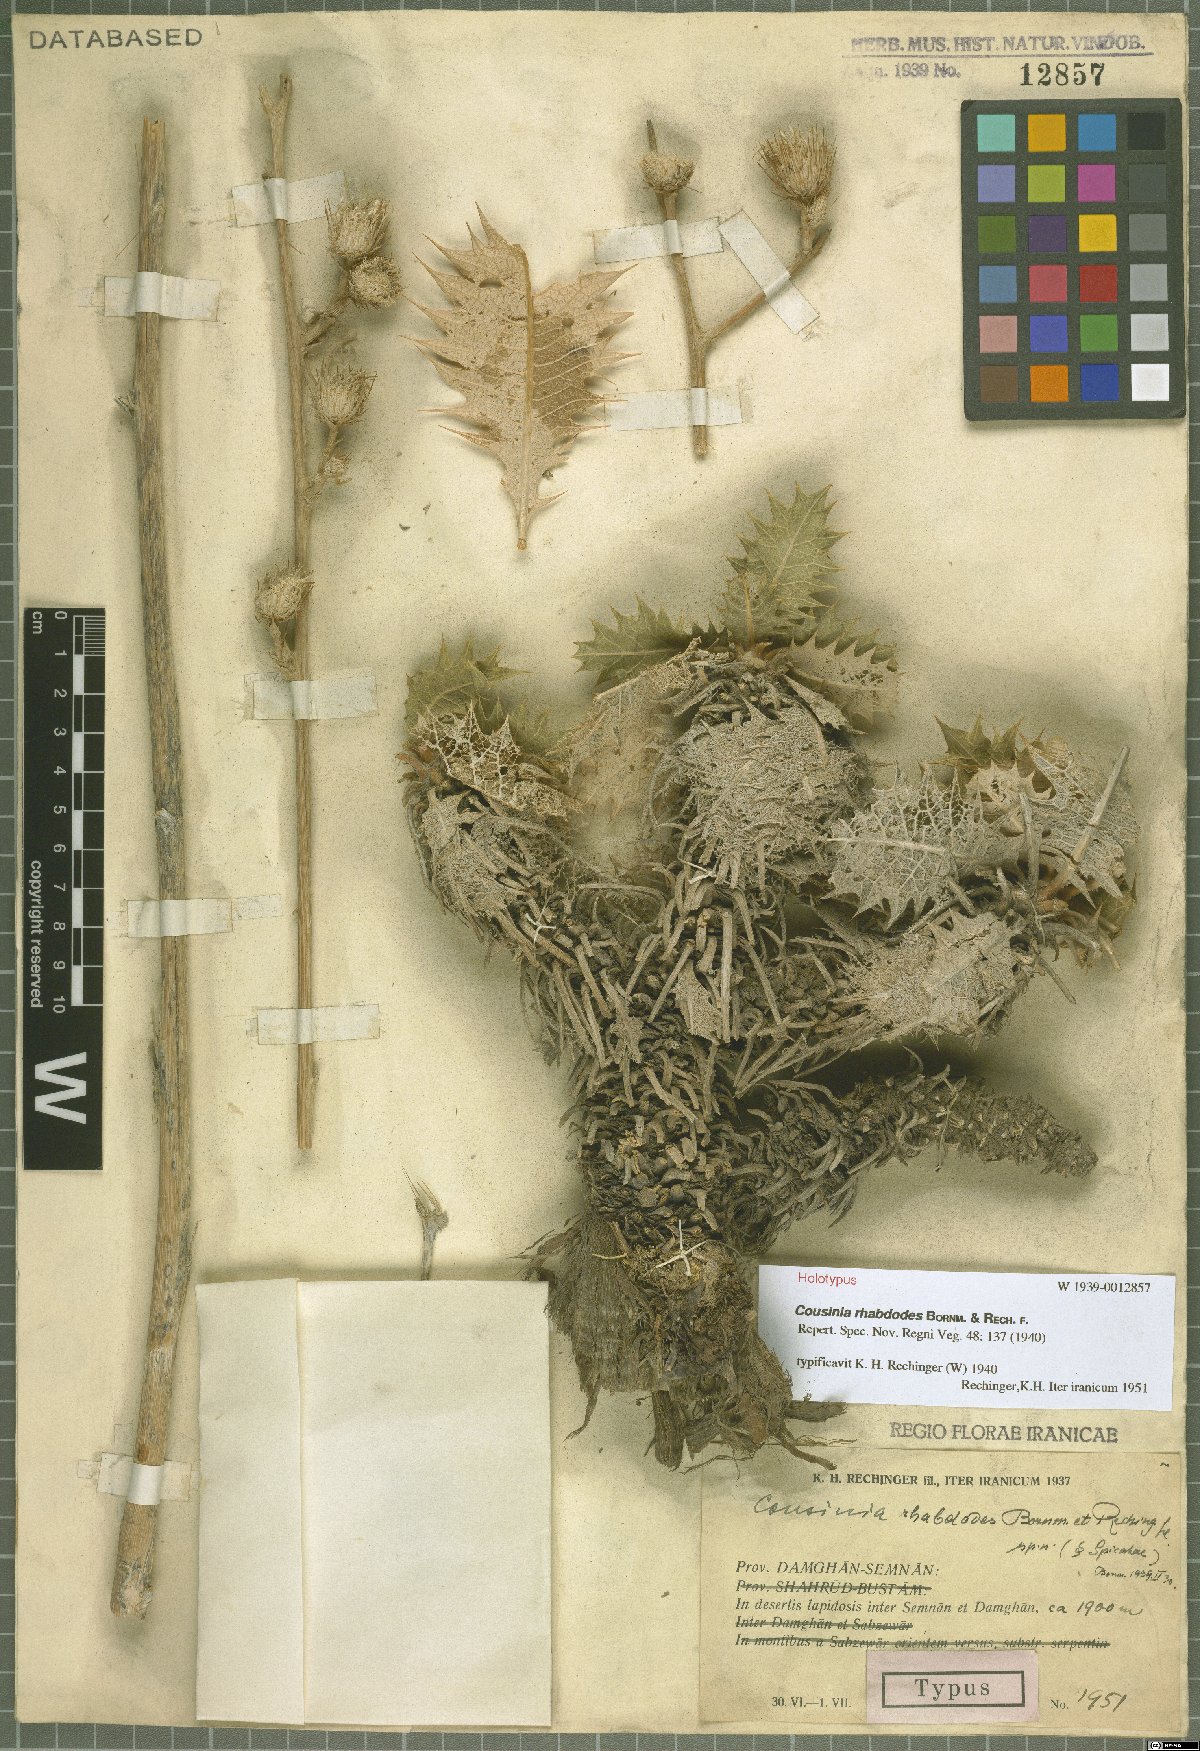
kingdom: Plantae
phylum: Tracheophyta
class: Magnoliopsida
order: Asterales
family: Asteraceae
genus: Cousinia
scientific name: Cousinia rhabdodes
